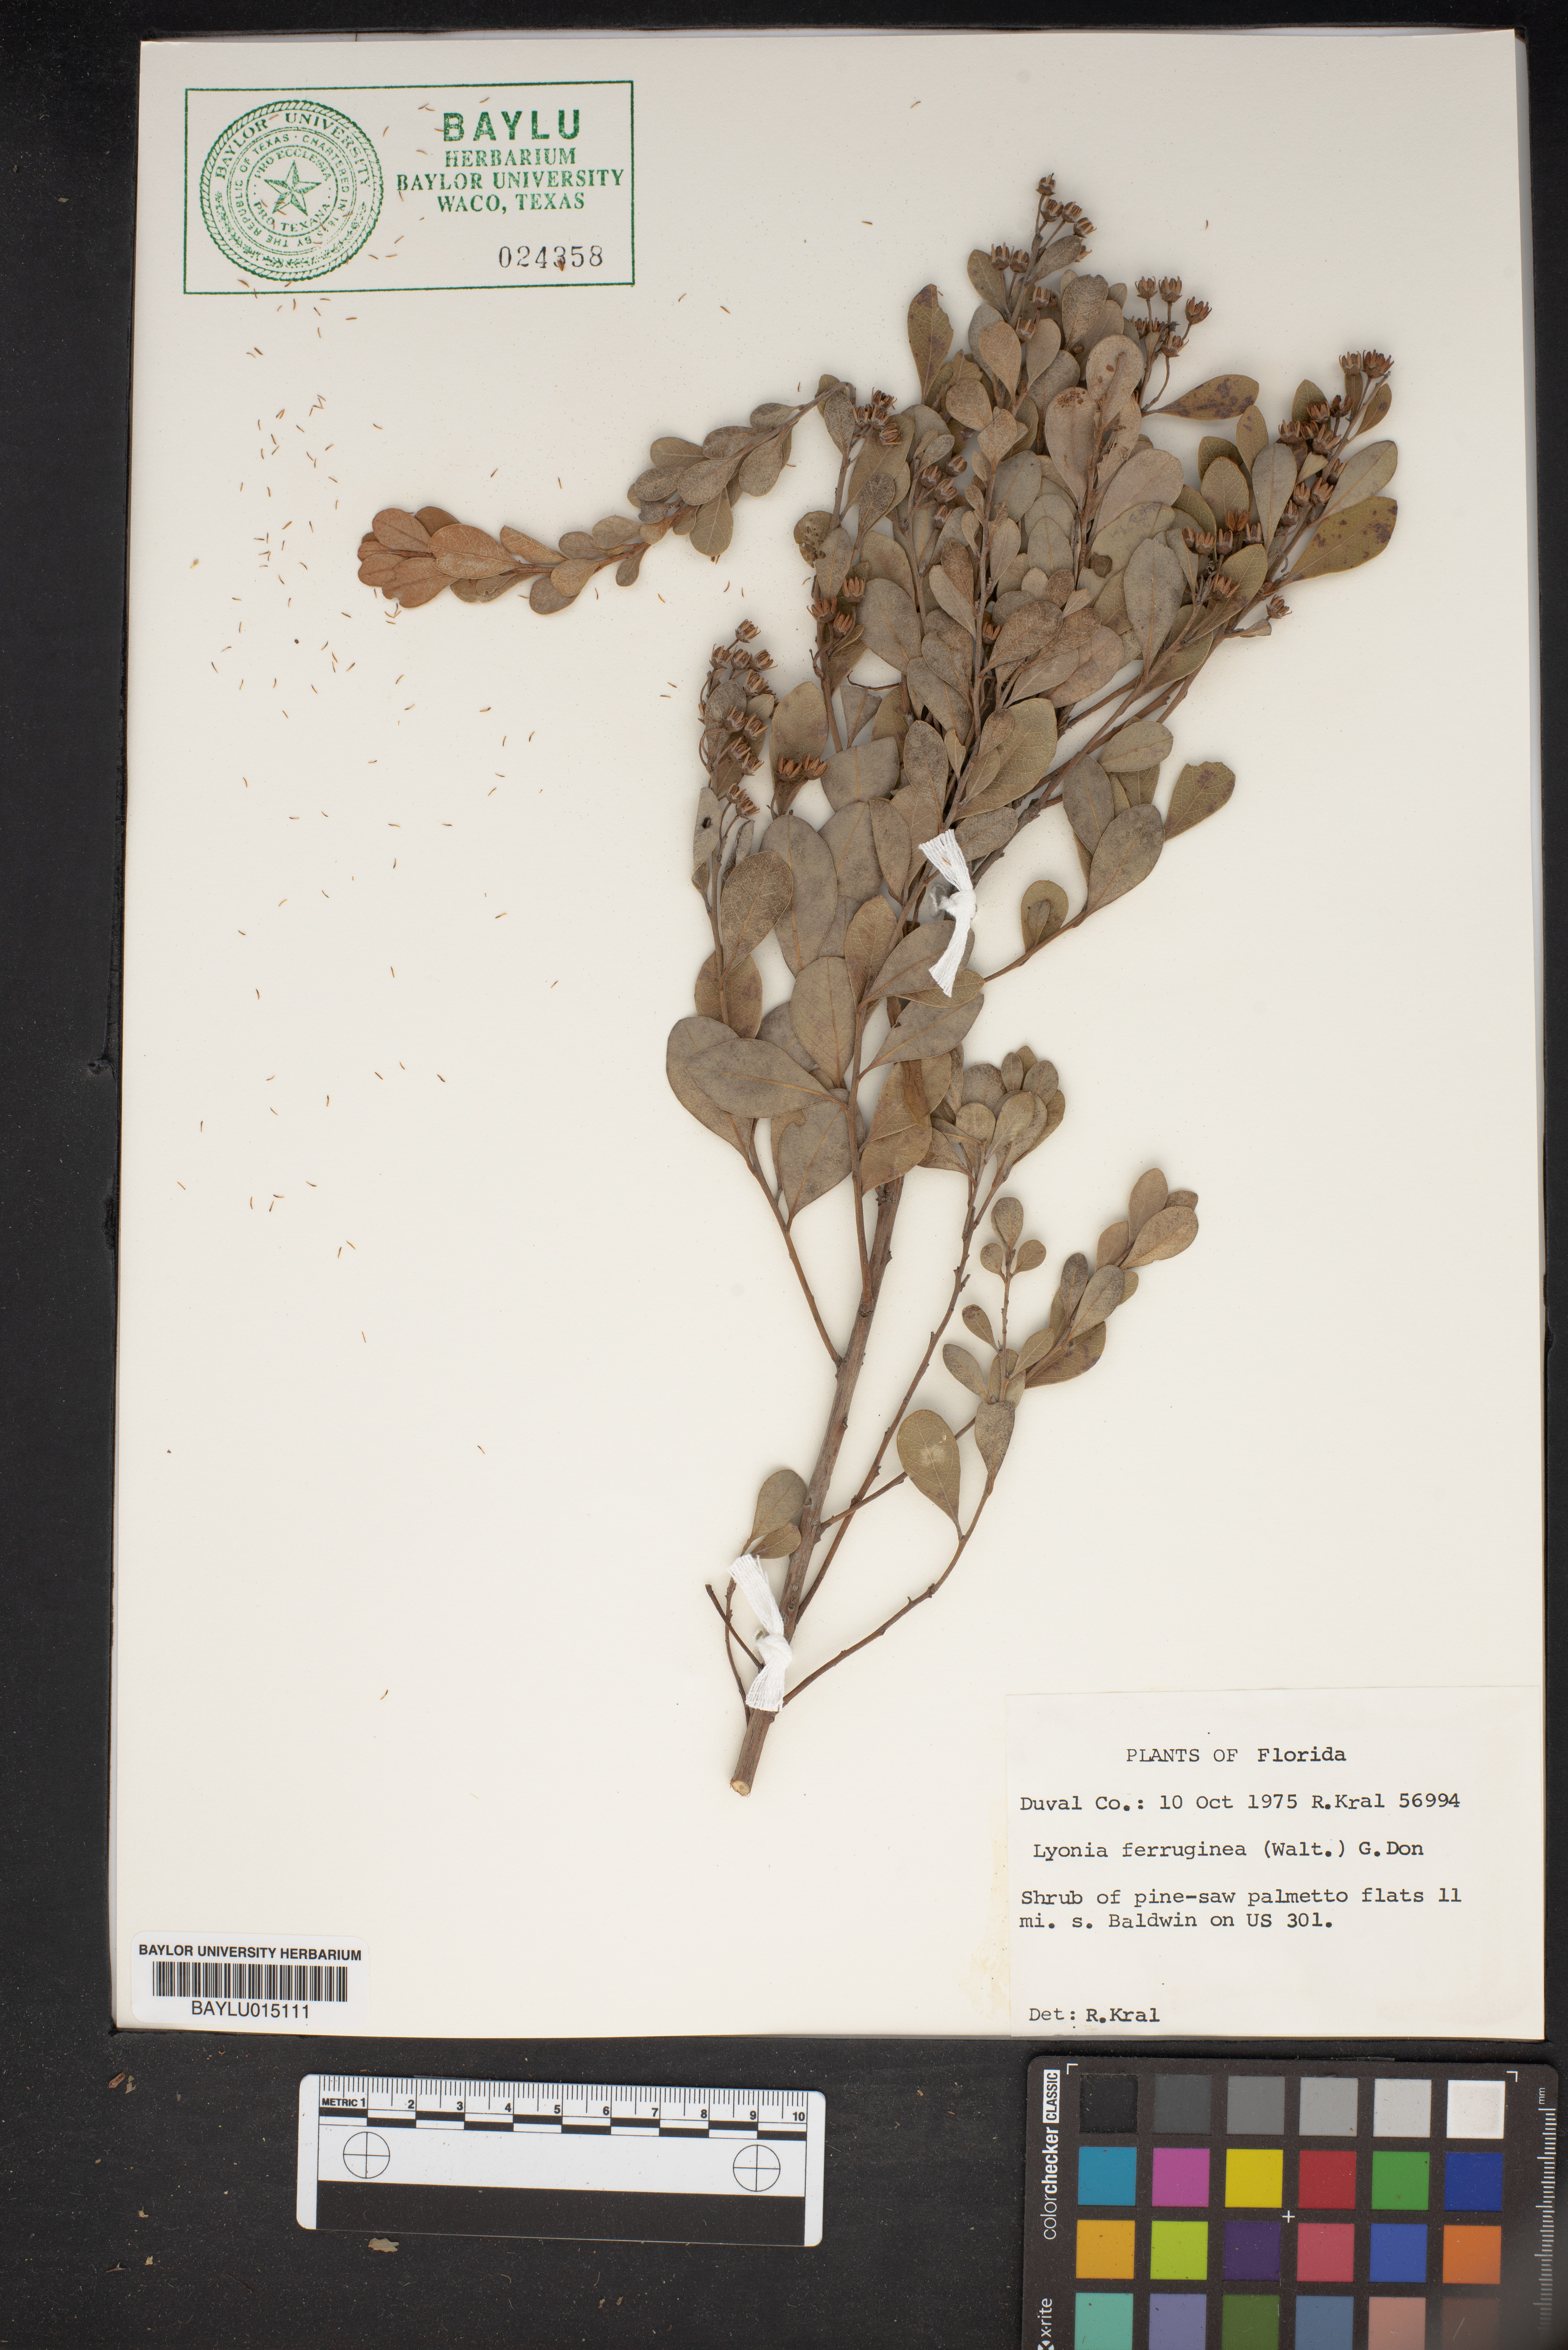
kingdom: Plantae
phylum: Tracheophyta
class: Magnoliopsida
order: Ericales
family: Ericaceae
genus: Lyonia
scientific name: Lyonia ferruginea
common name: Rusty lyonia
